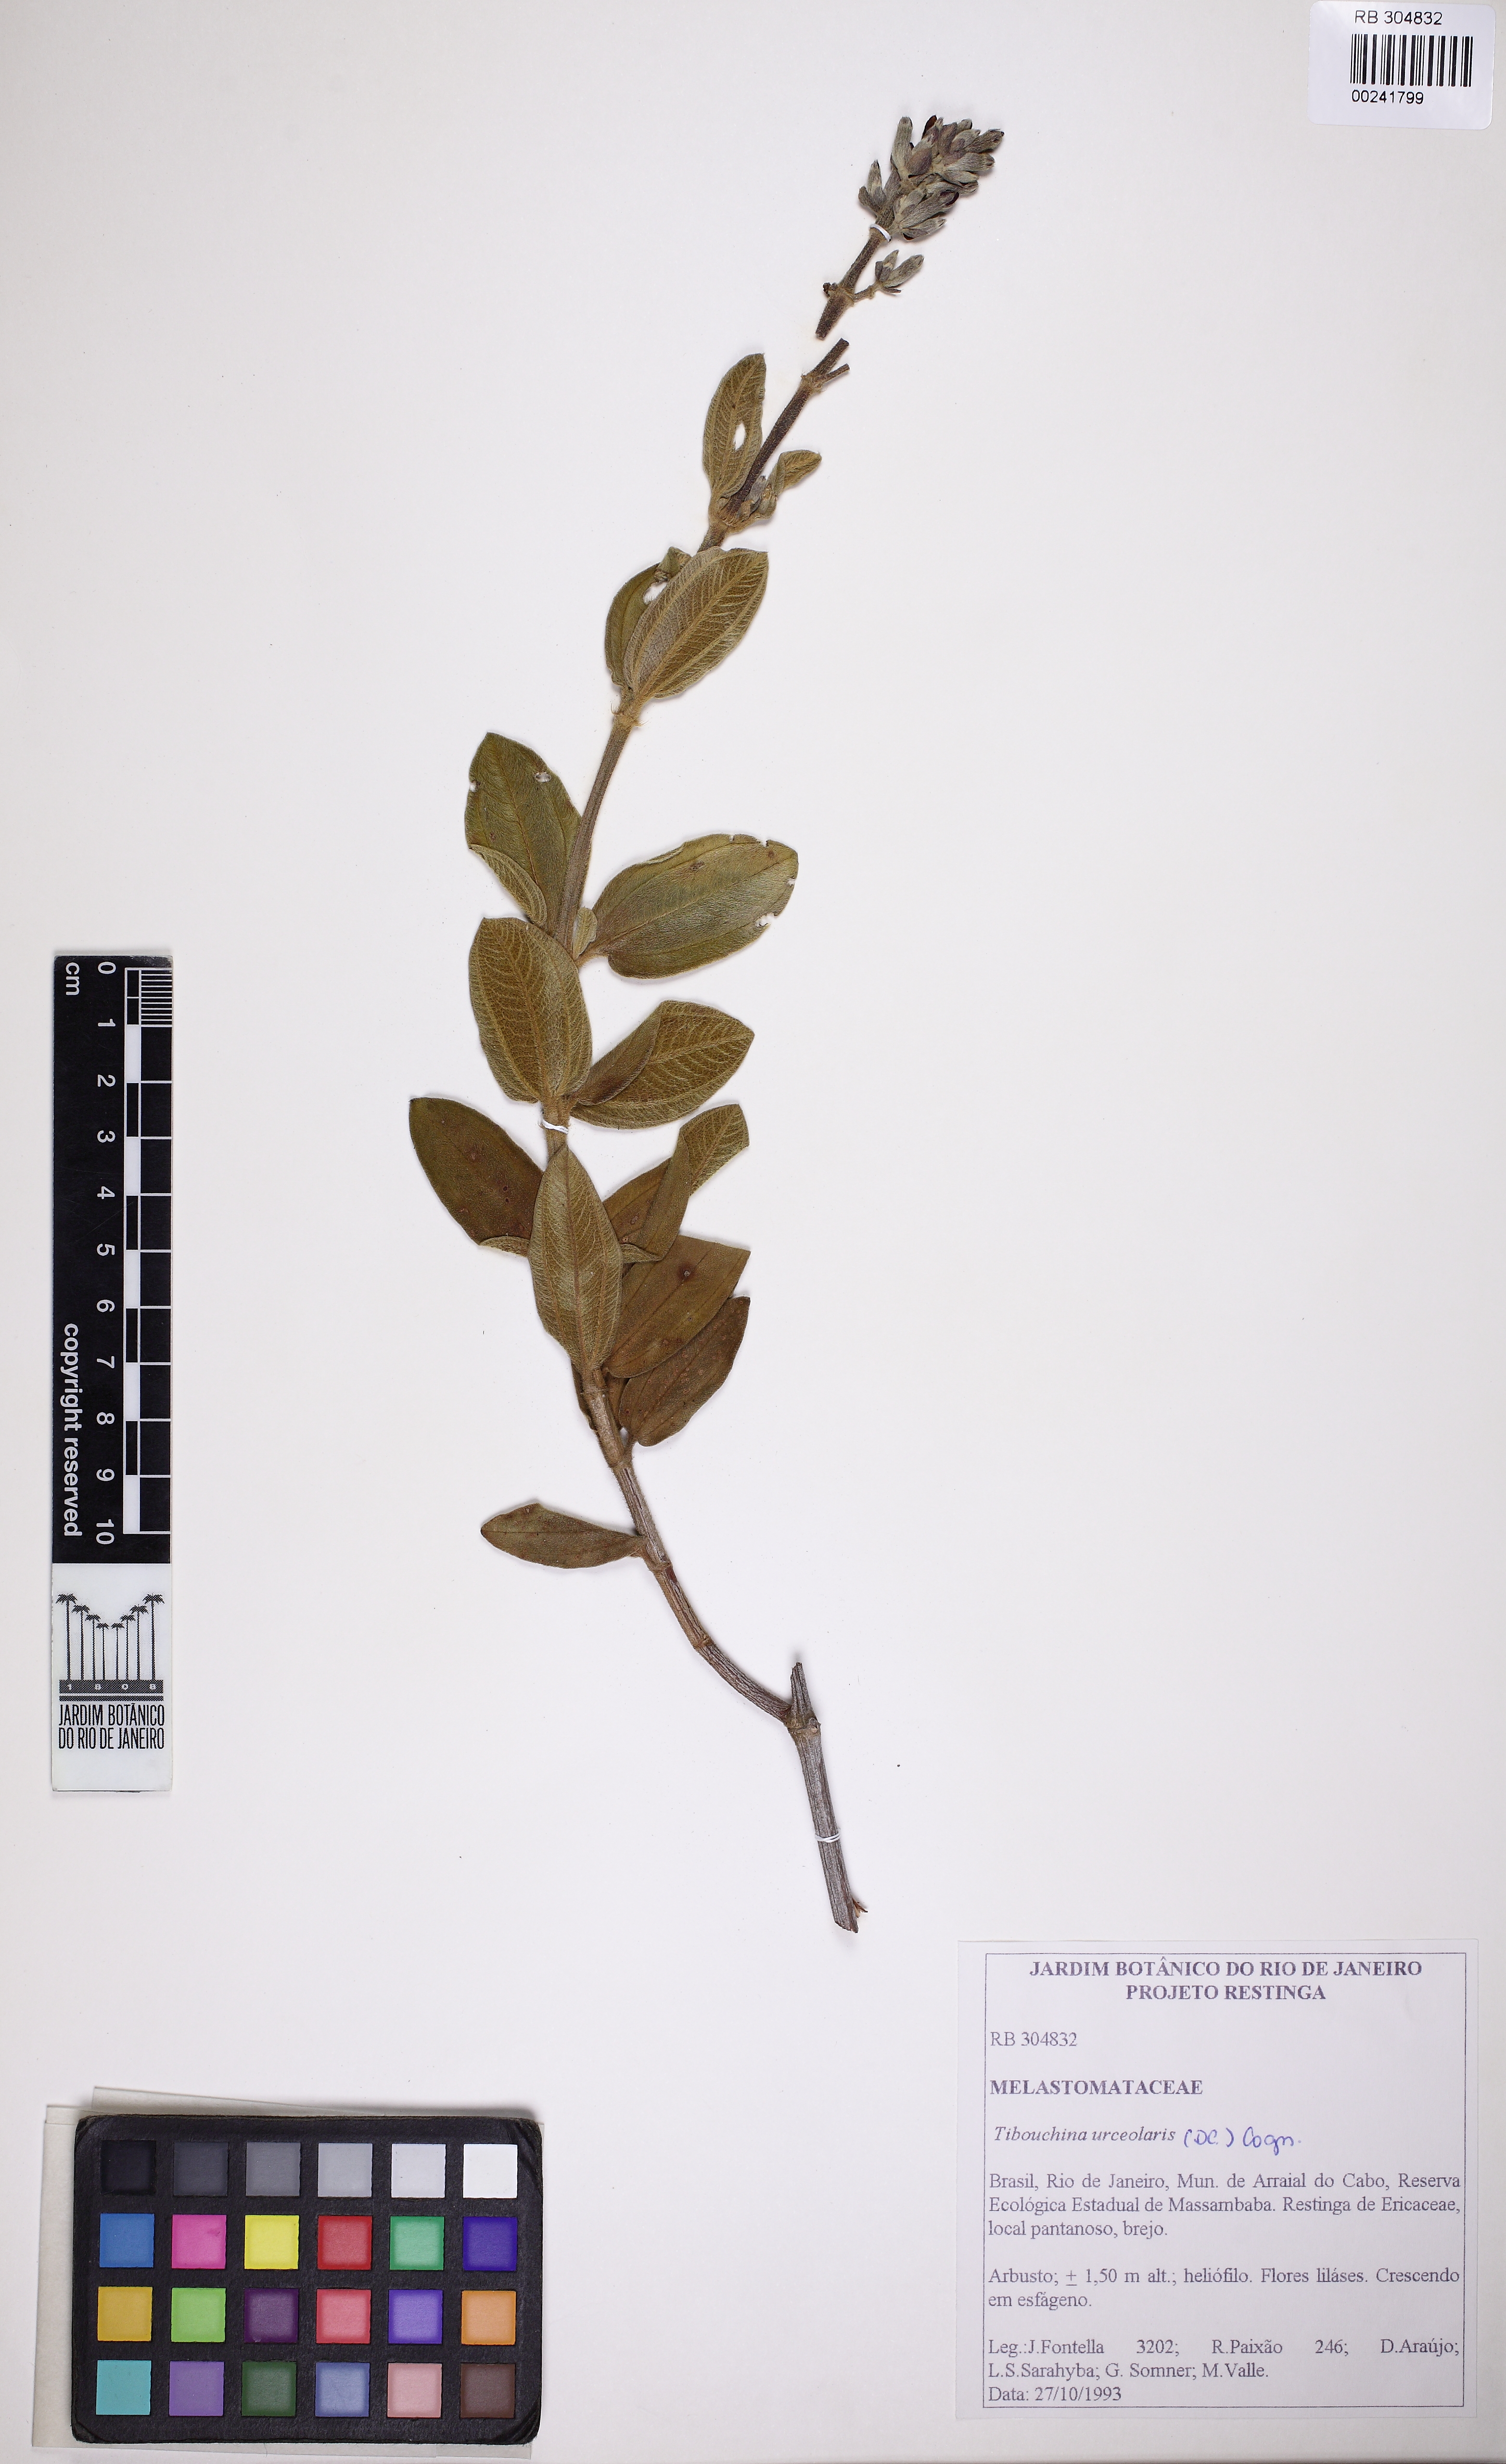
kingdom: Plantae
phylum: Tracheophyta
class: Magnoliopsida
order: Myrtales
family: Melastomataceae
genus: Pleroma
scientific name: Pleroma urceolare
